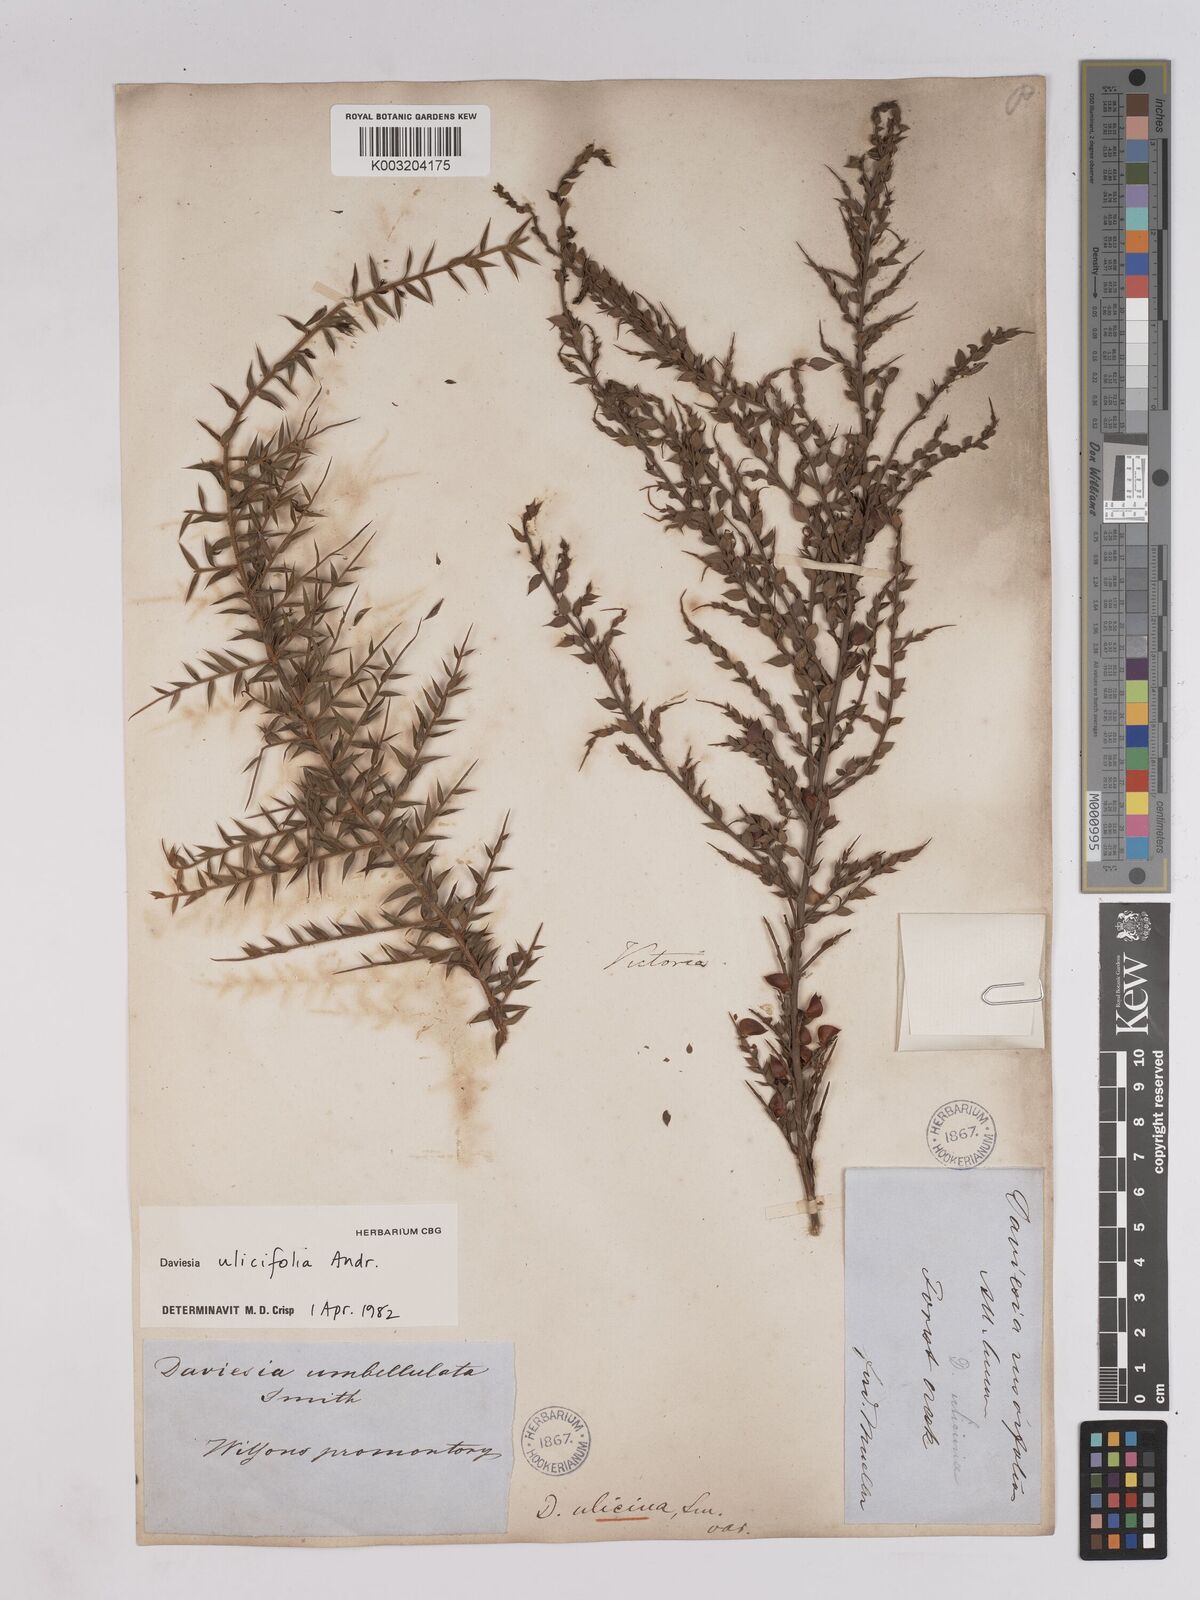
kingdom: Plantae
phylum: Tracheophyta
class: Magnoliopsida
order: Fabales
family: Fabaceae
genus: Daviesia
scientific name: Daviesia ulicifolia
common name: Gorse bitter-pea
